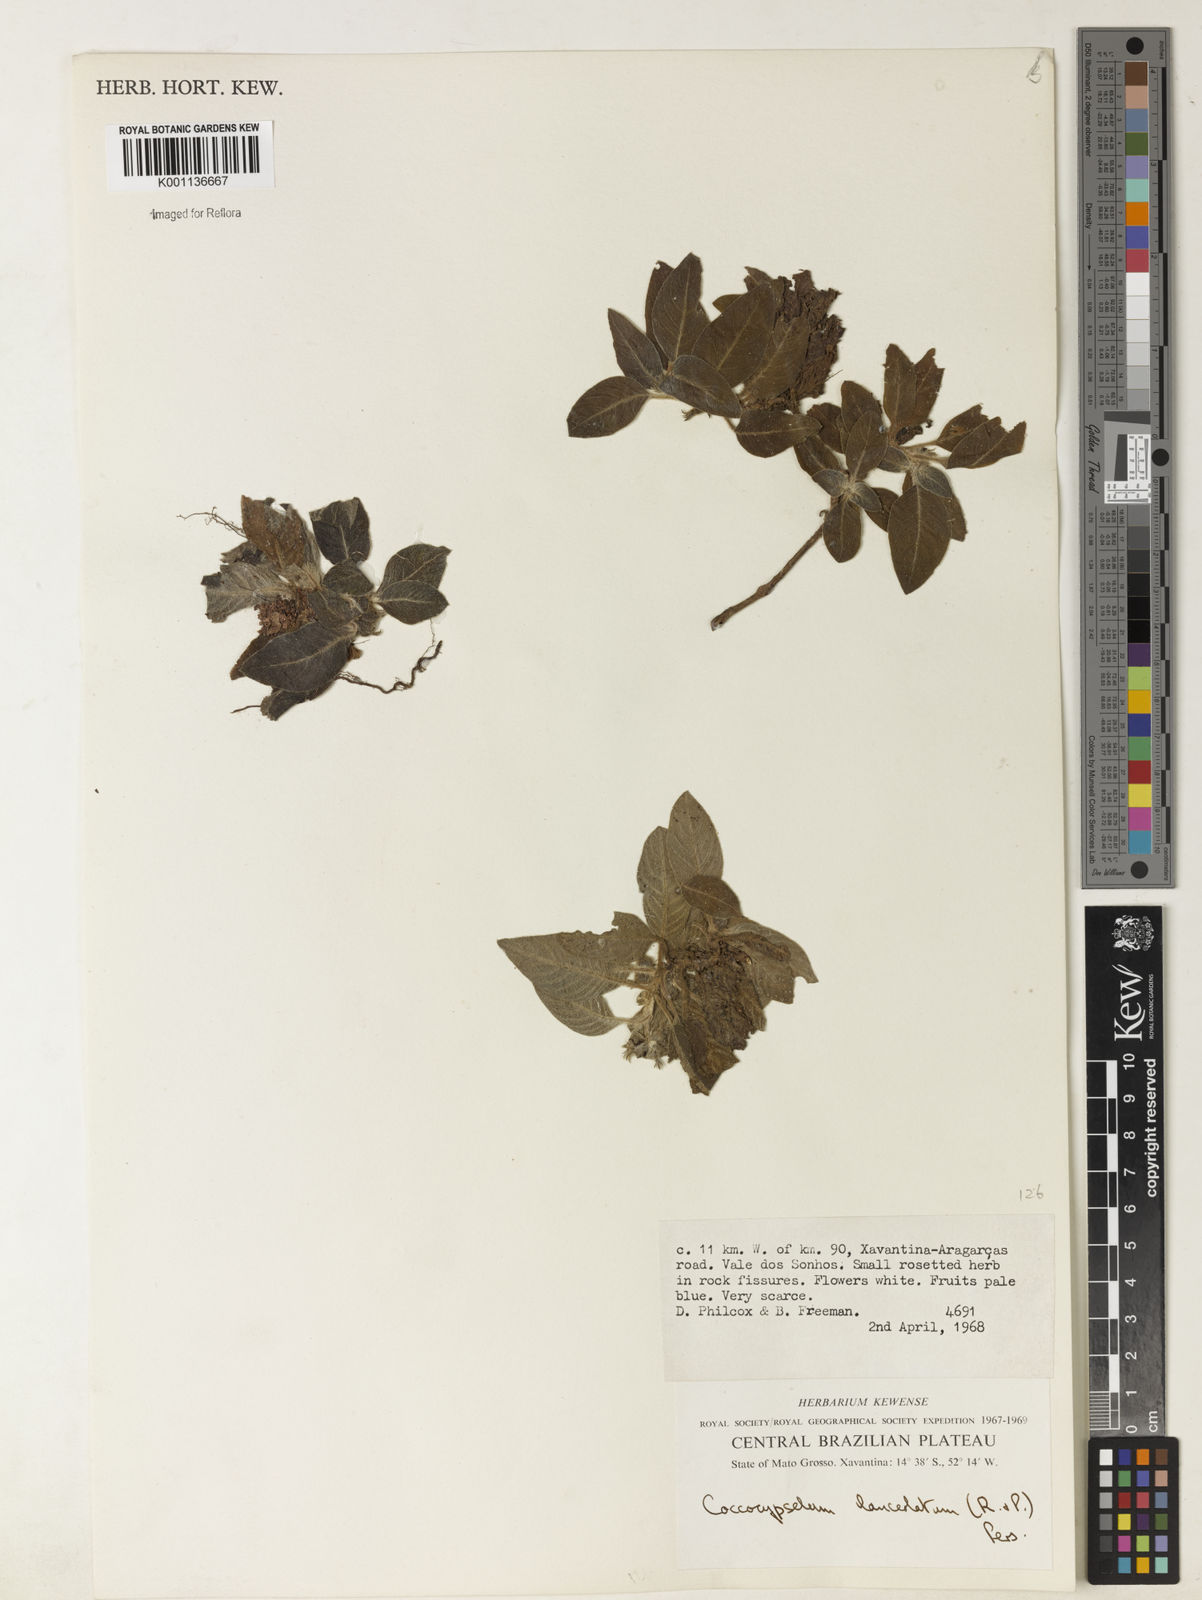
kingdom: Plantae
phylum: Tracheophyta
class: Magnoliopsida
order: Gentianales
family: Rubiaceae
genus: Coccocypselum
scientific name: Coccocypselum lanceolatum
